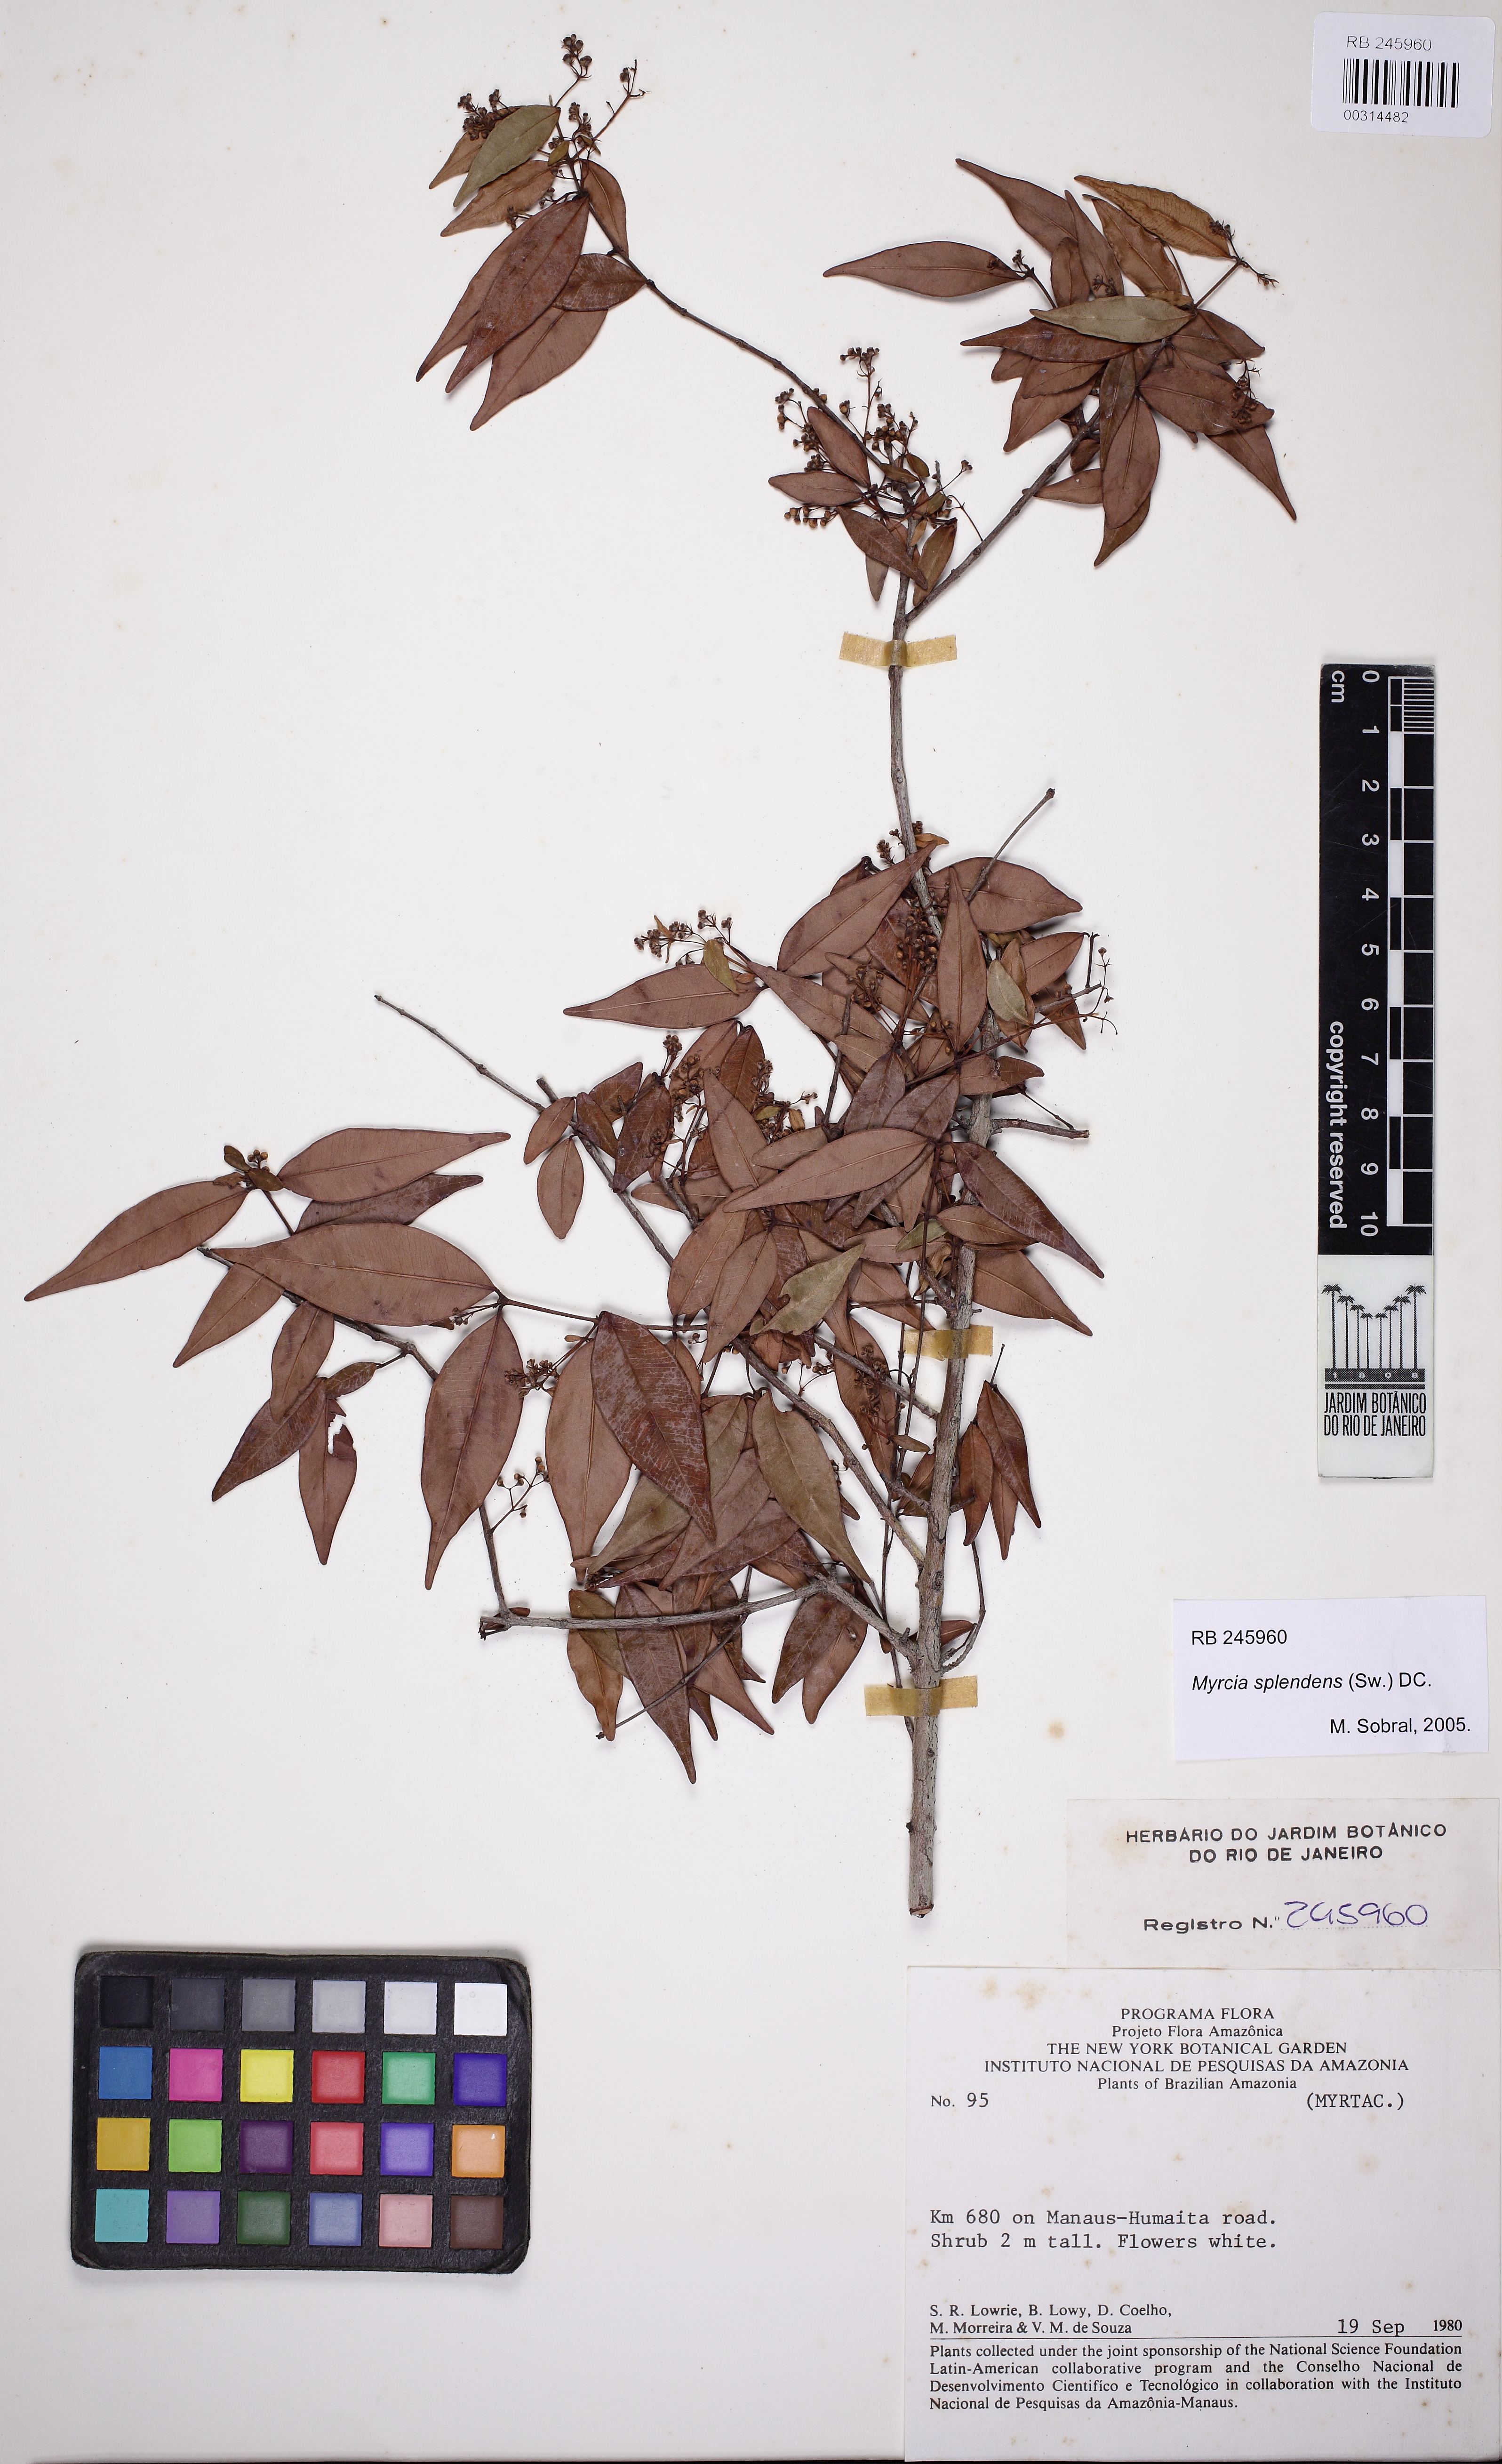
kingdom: Plantae
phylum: Tracheophyta
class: Magnoliopsida
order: Myrtales
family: Myrtaceae
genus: Myrcia
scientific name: Myrcia splendens
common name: Surinam cherry
